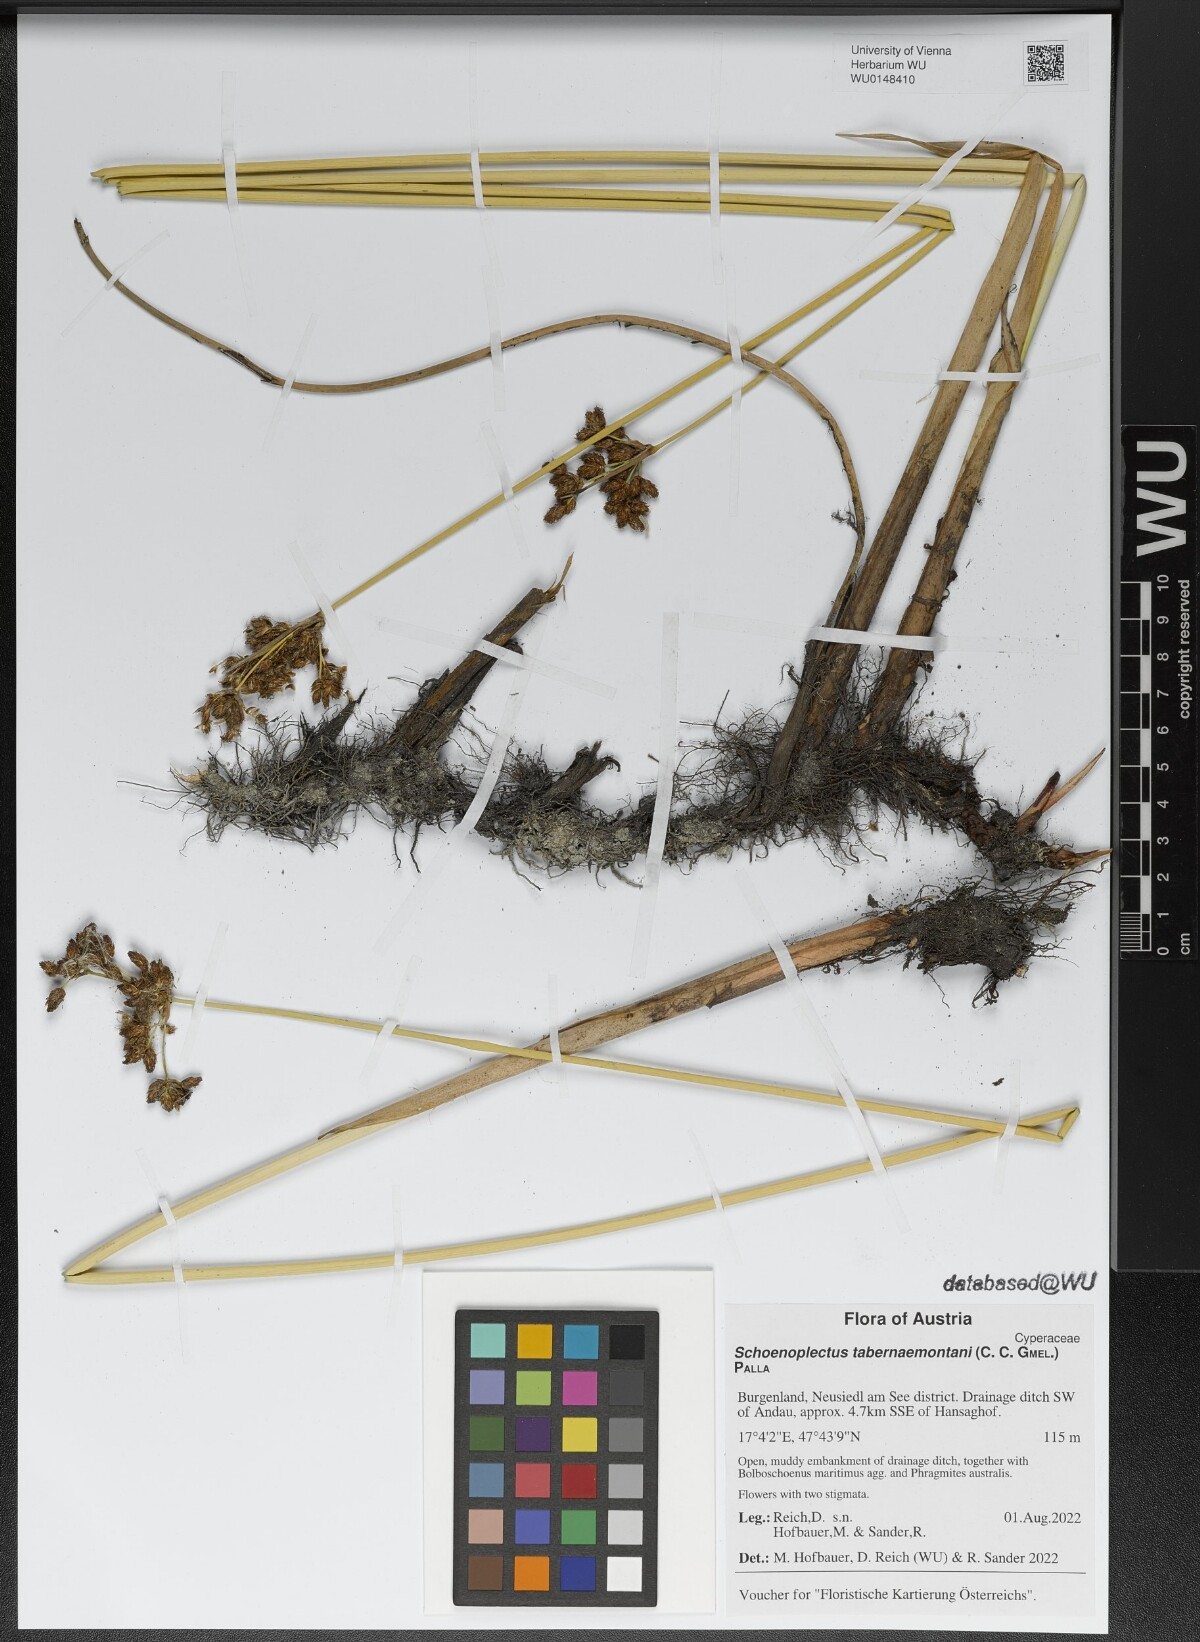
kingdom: Plantae
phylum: Tracheophyta
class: Liliopsida
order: Poales
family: Cyperaceae
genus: Schoenoplectus
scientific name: Schoenoplectus tabernaemontani
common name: Grey club-rush
